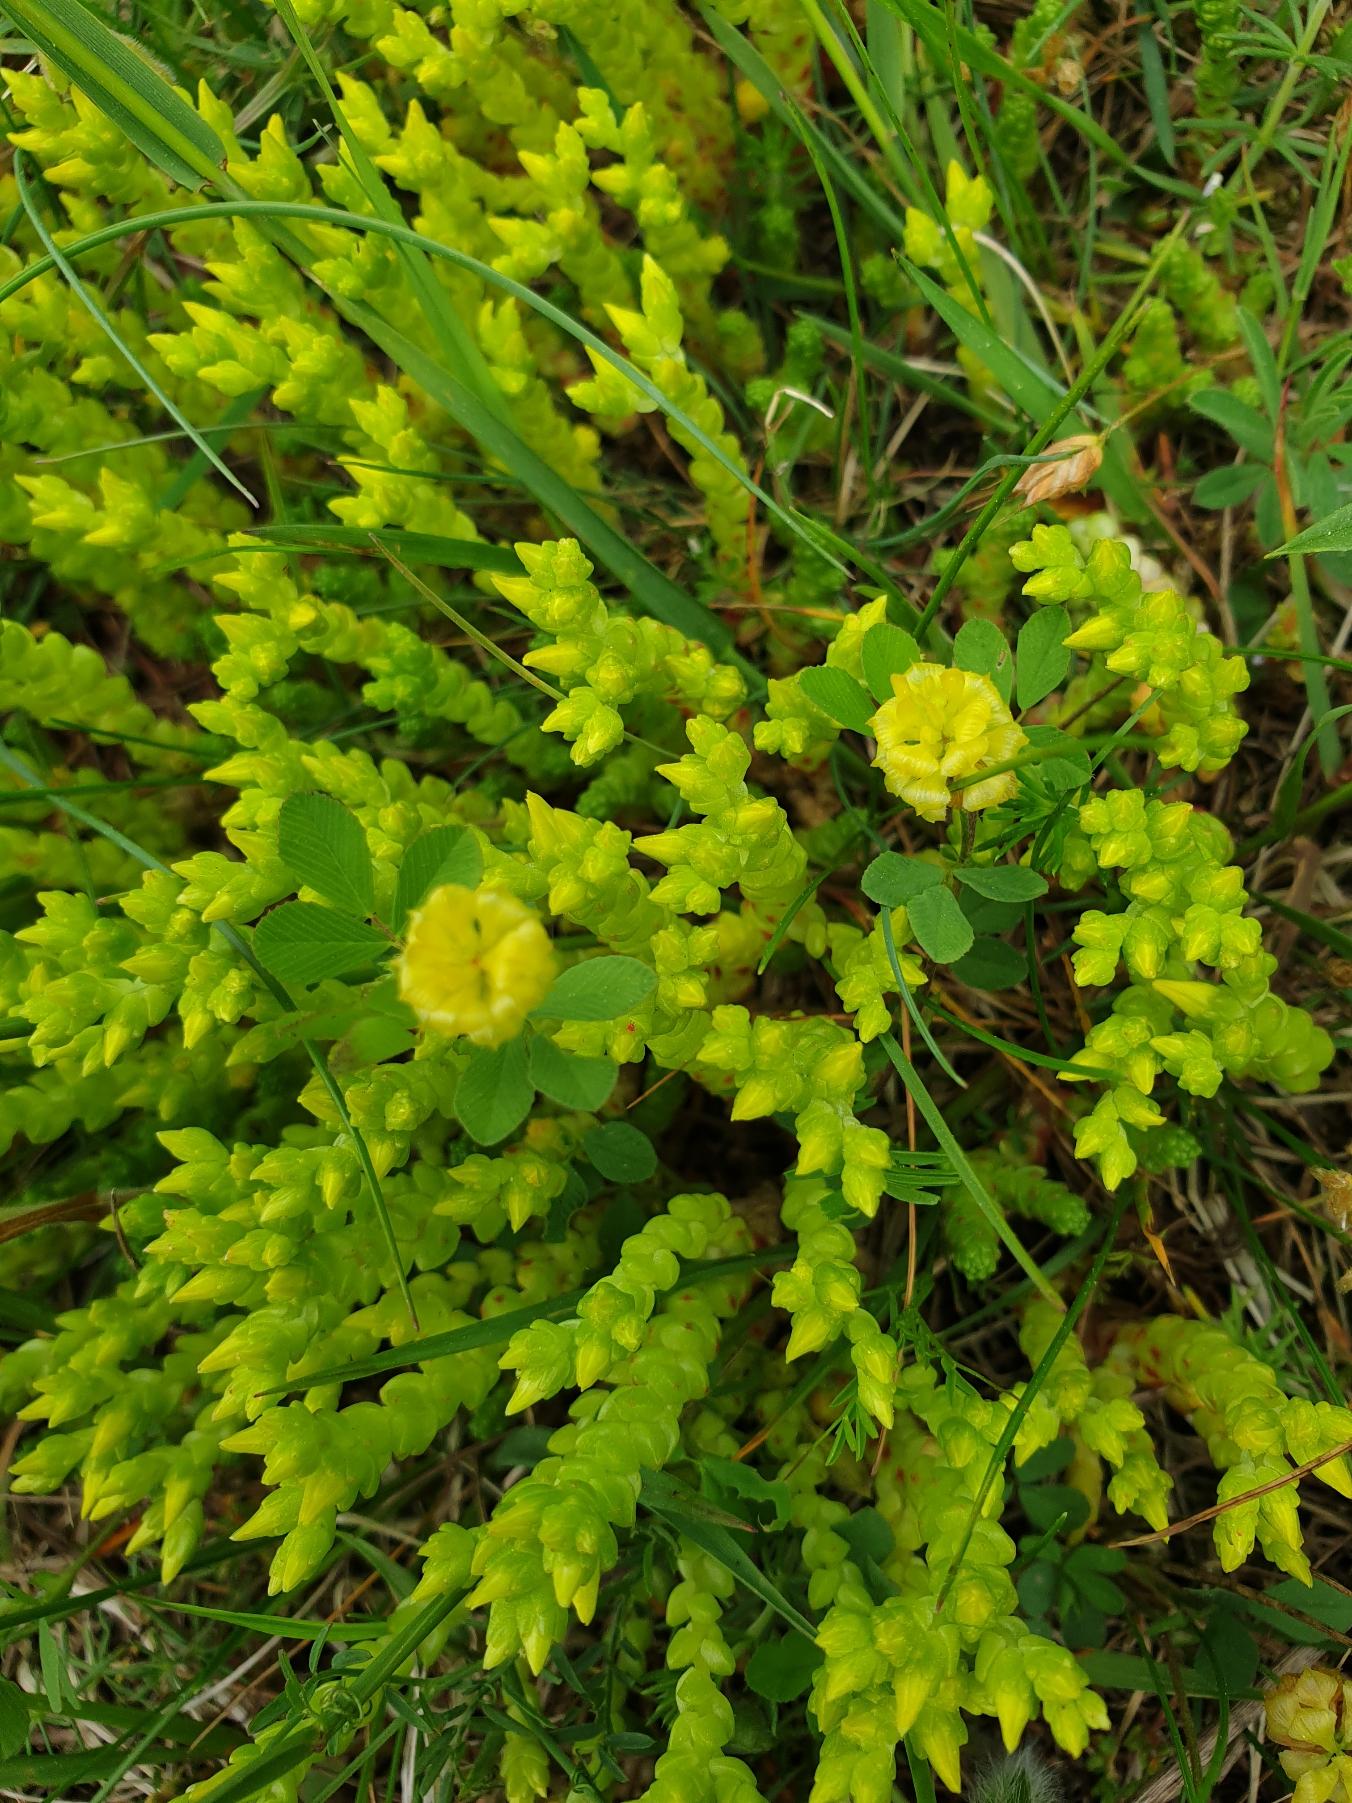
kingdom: Plantae
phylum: Tracheophyta
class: Magnoliopsida
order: Saxifragales
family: Crassulaceae
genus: Sedum
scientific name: Sedum acre
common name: Bidende stenurt
